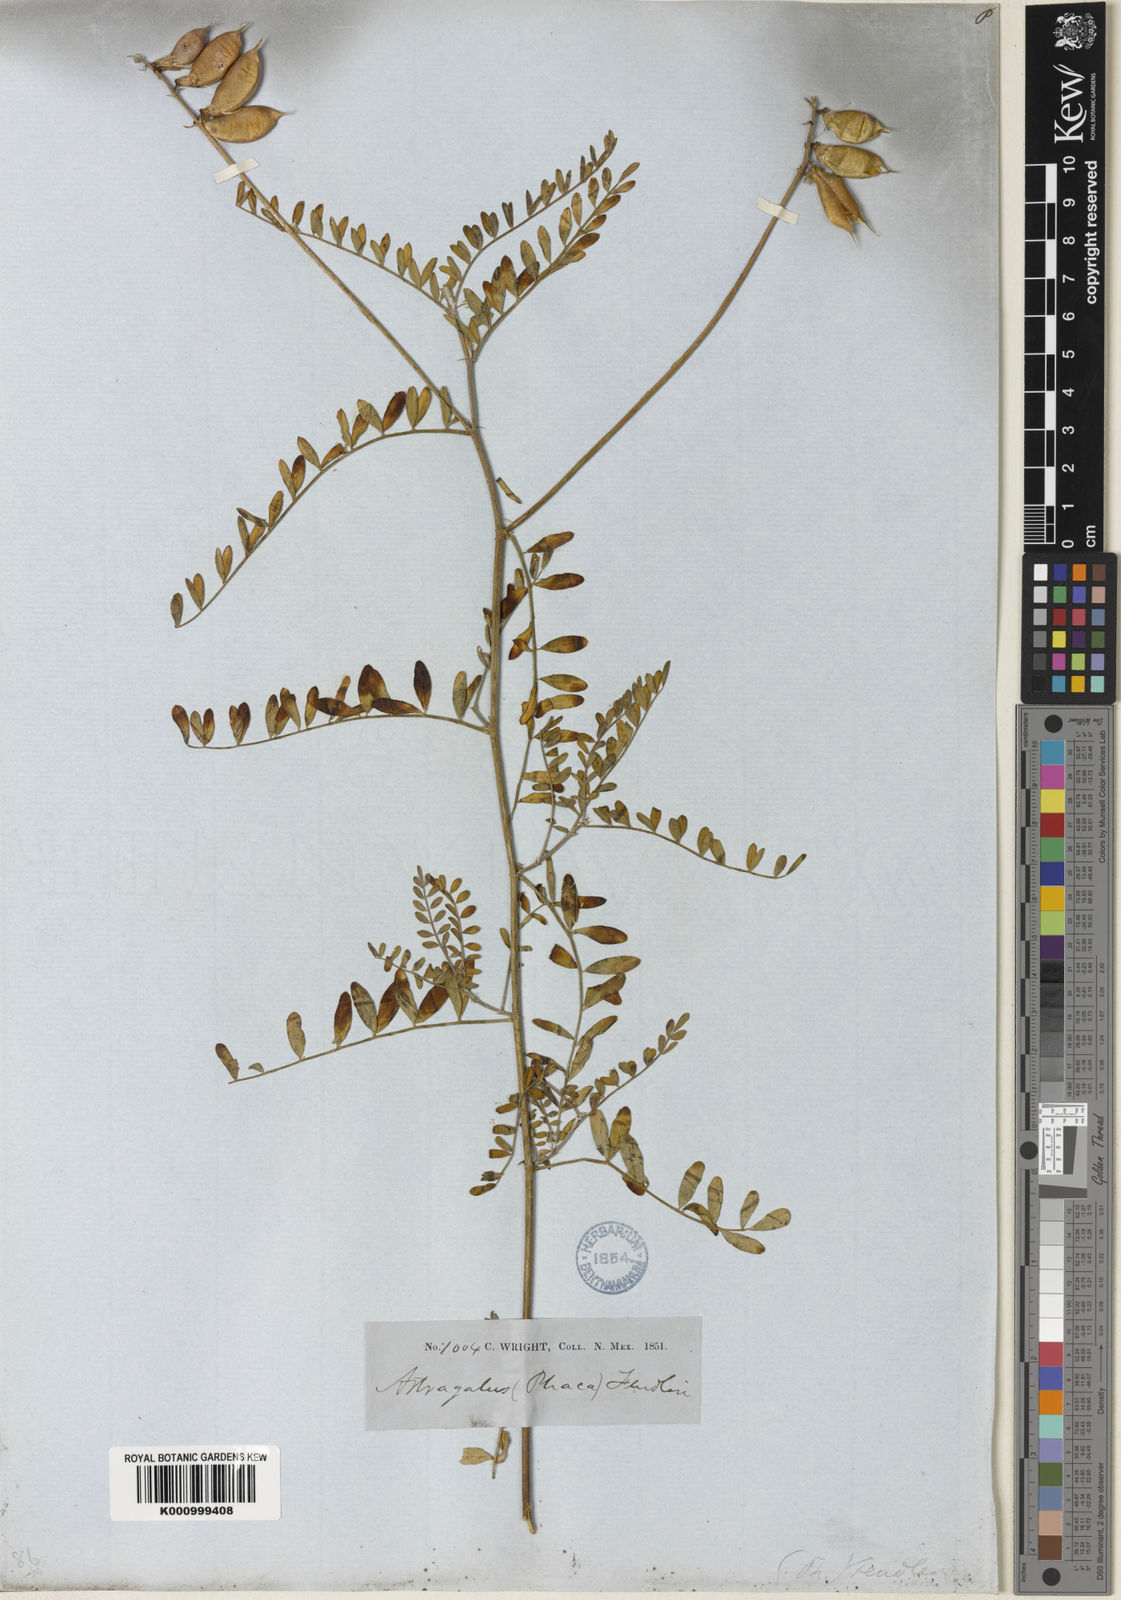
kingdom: Plantae
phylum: Tracheophyta
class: Magnoliopsida
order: Fabales
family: Fabaceae
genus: Astragalus
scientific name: Astragalus flexuosus
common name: Pliant milk-vetch
